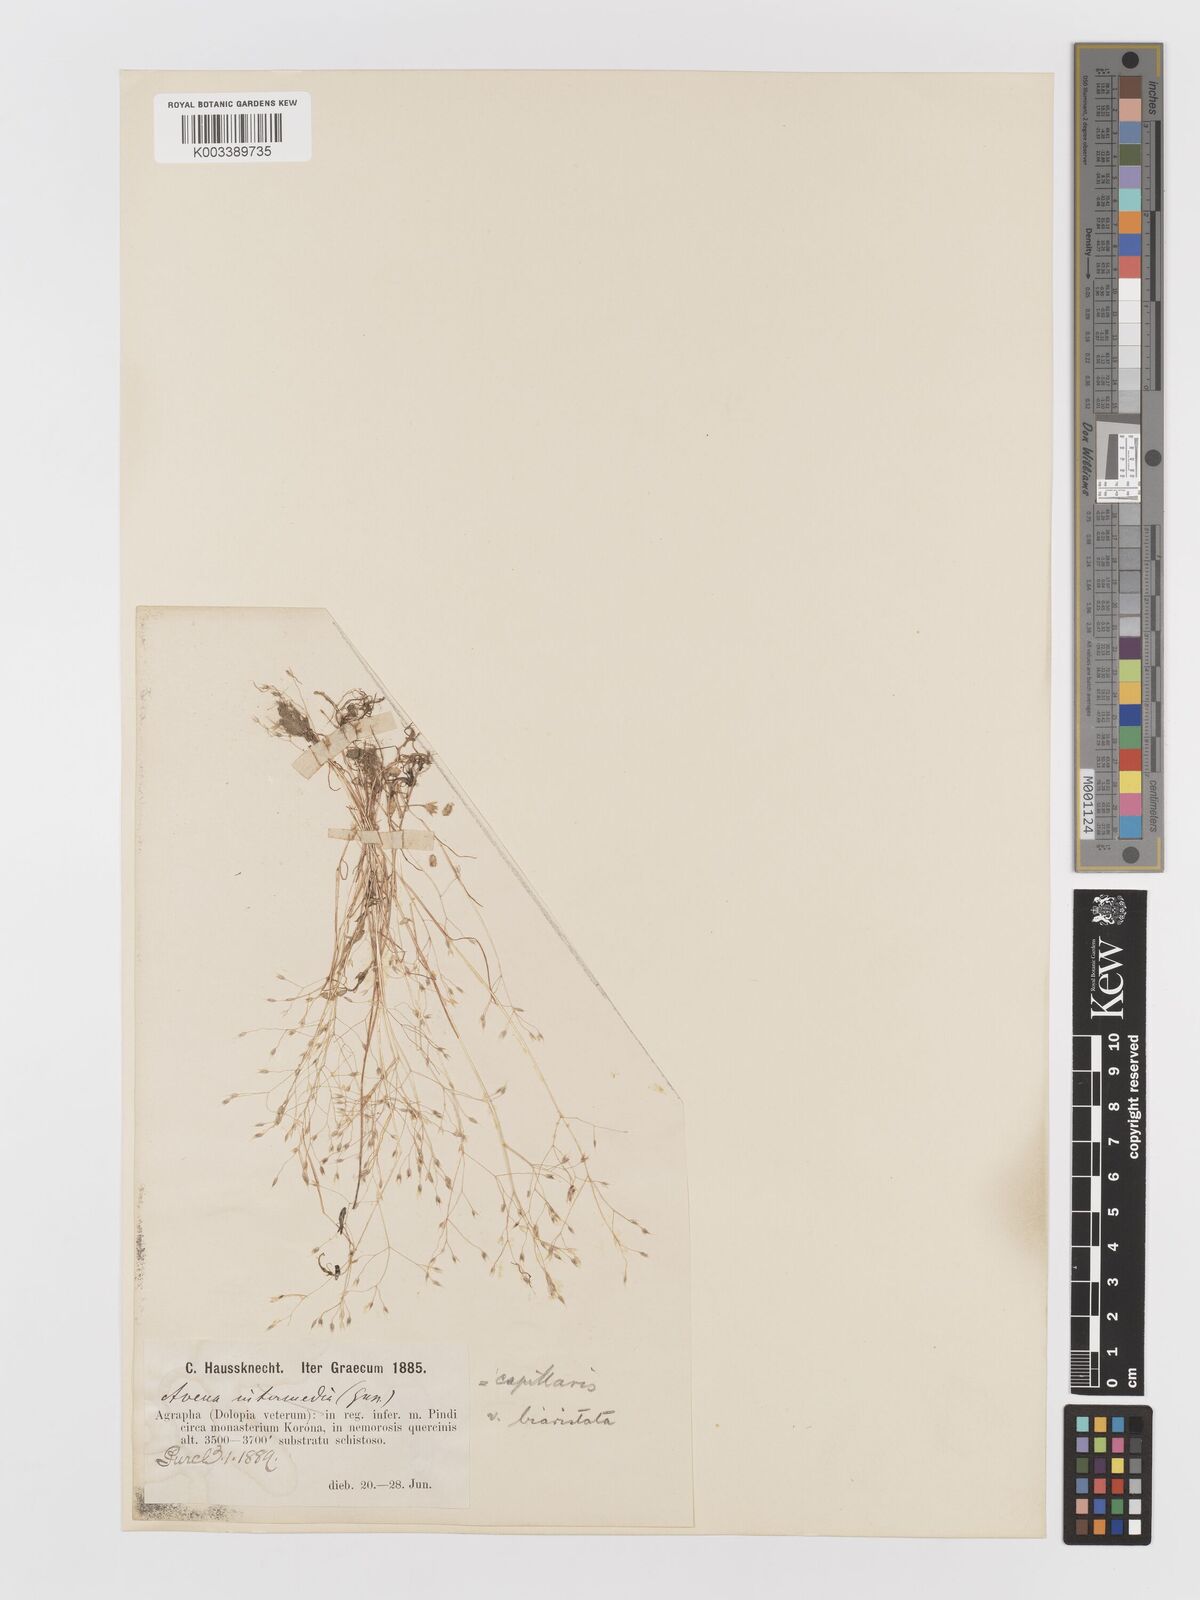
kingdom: Plantae
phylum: Tracheophyta
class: Liliopsida
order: Poales
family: Poaceae
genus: Aira
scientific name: Aira caryophyllea
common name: Silver hairgrass
